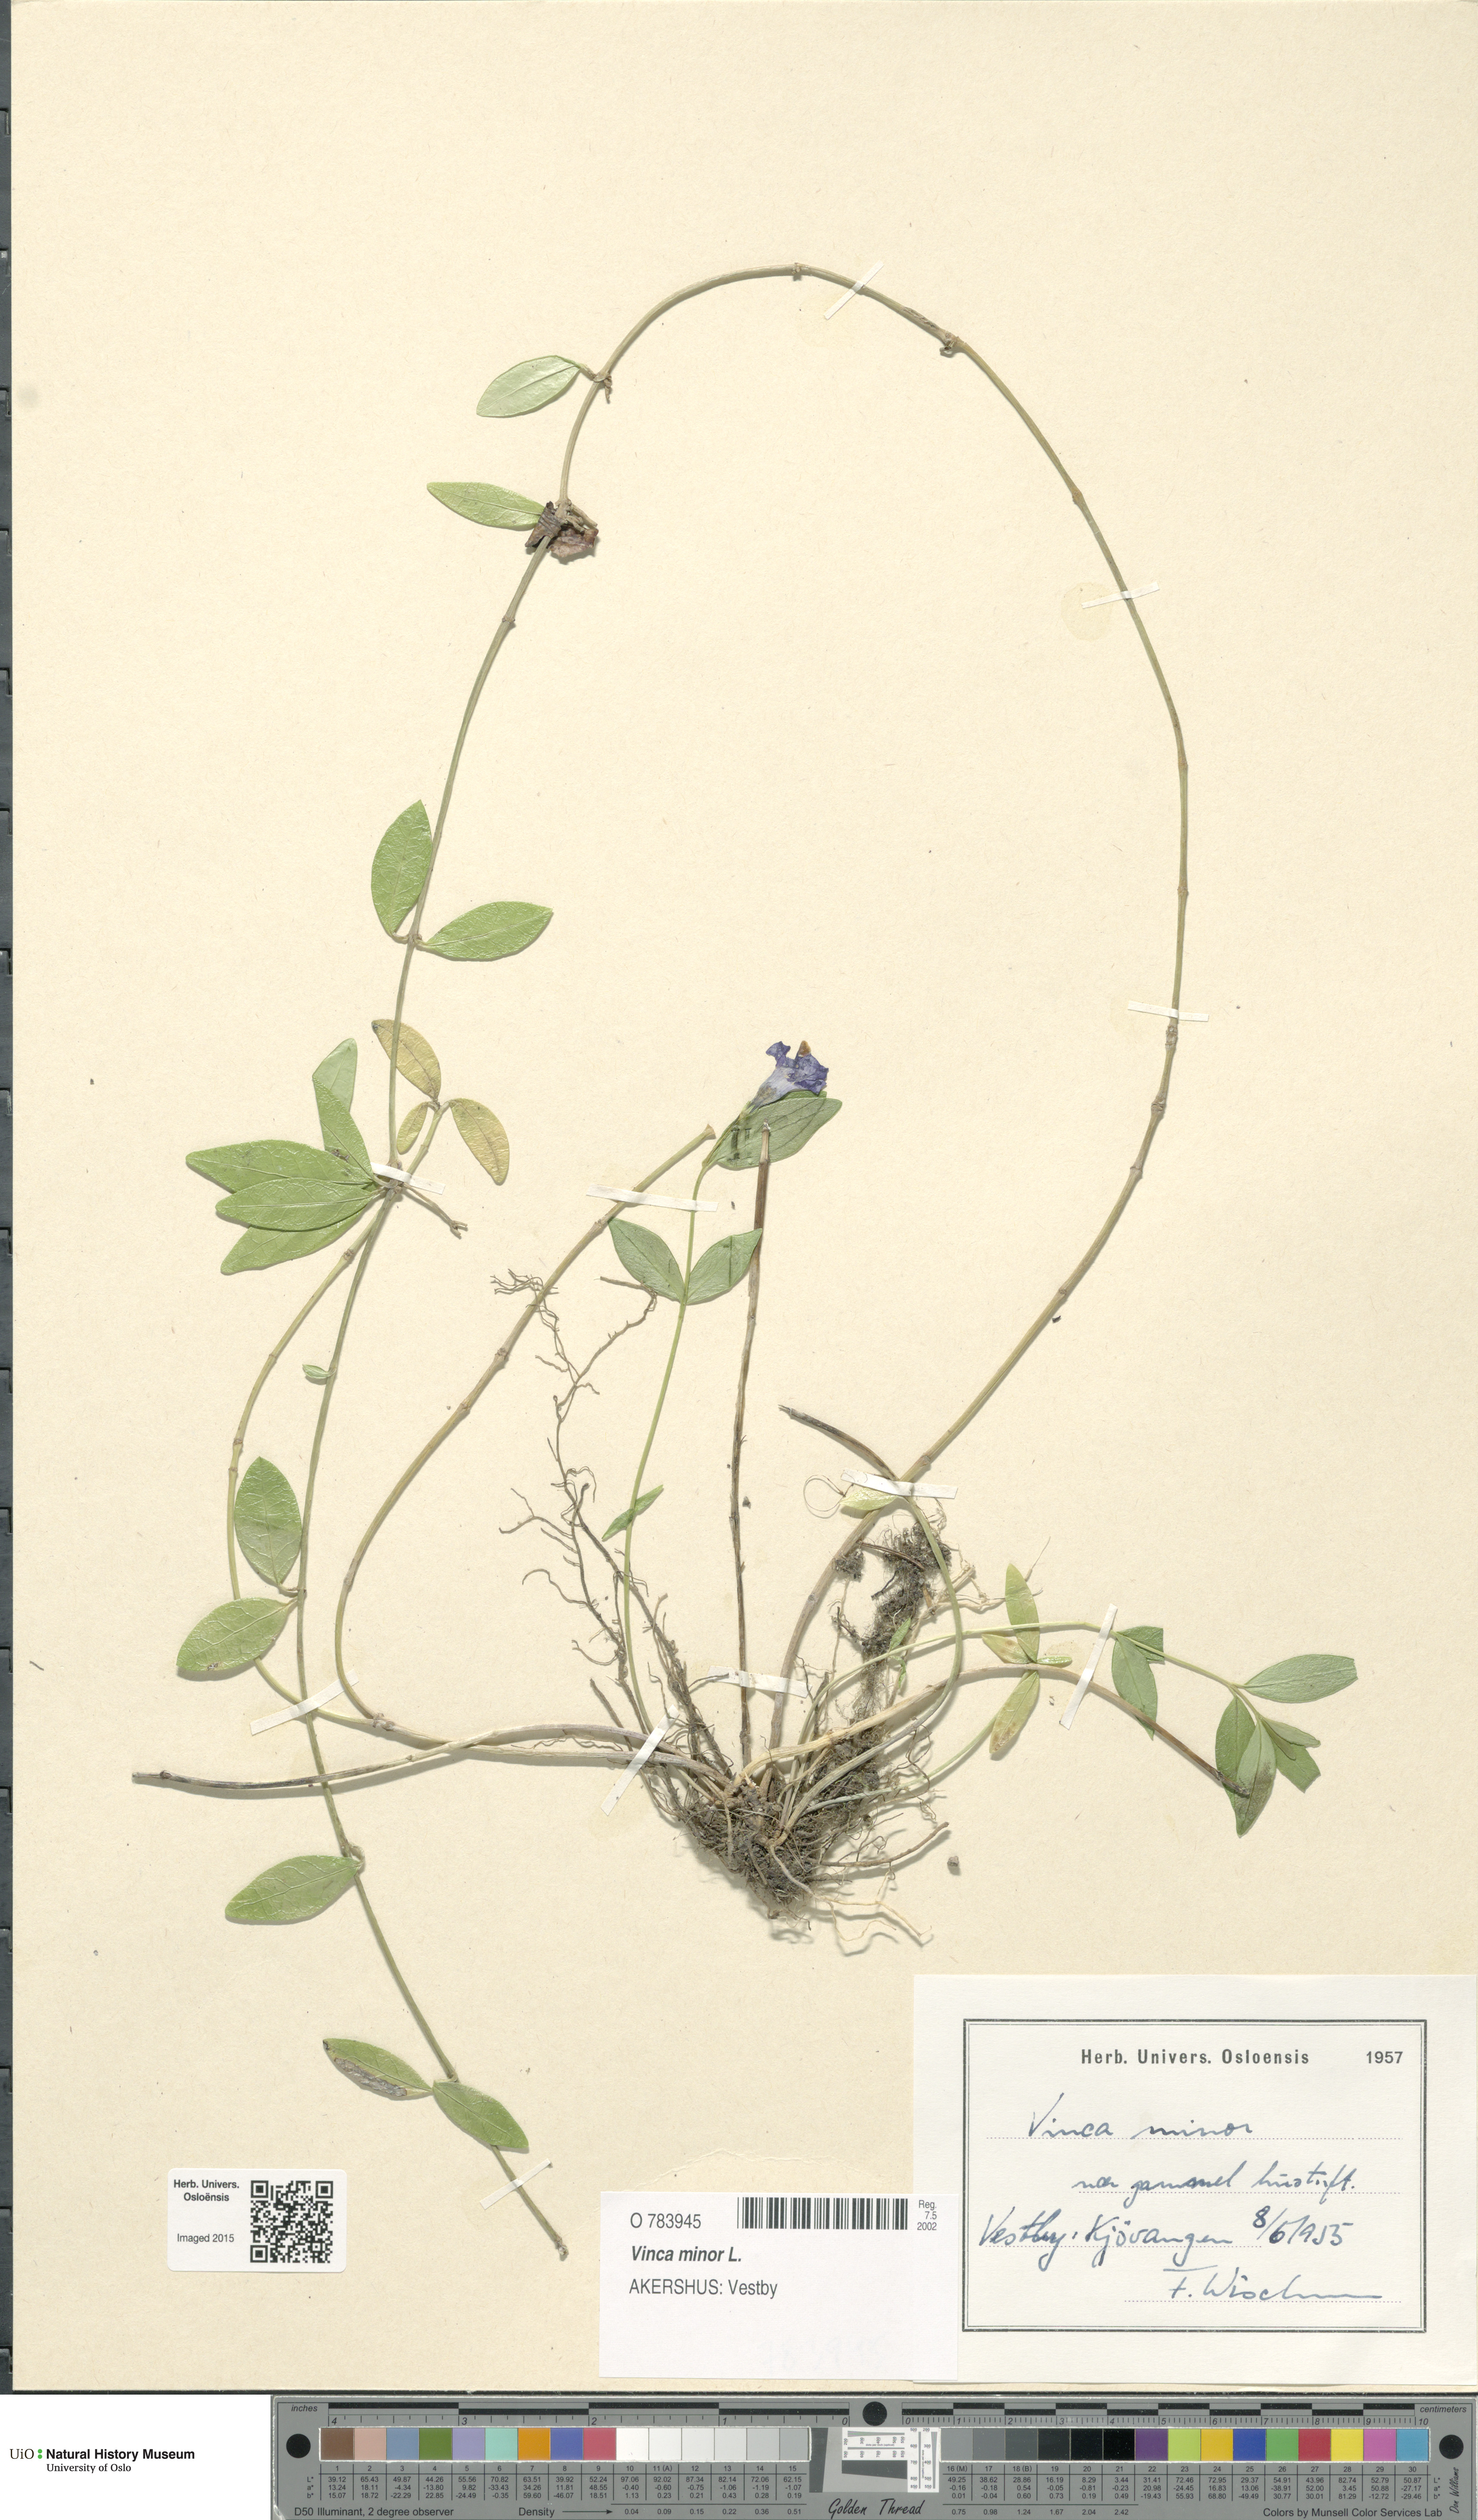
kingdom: Plantae
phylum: Tracheophyta
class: Magnoliopsida
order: Gentianales
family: Apocynaceae
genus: Vinca
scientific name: Vinca minor
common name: Lesser periwinkle
